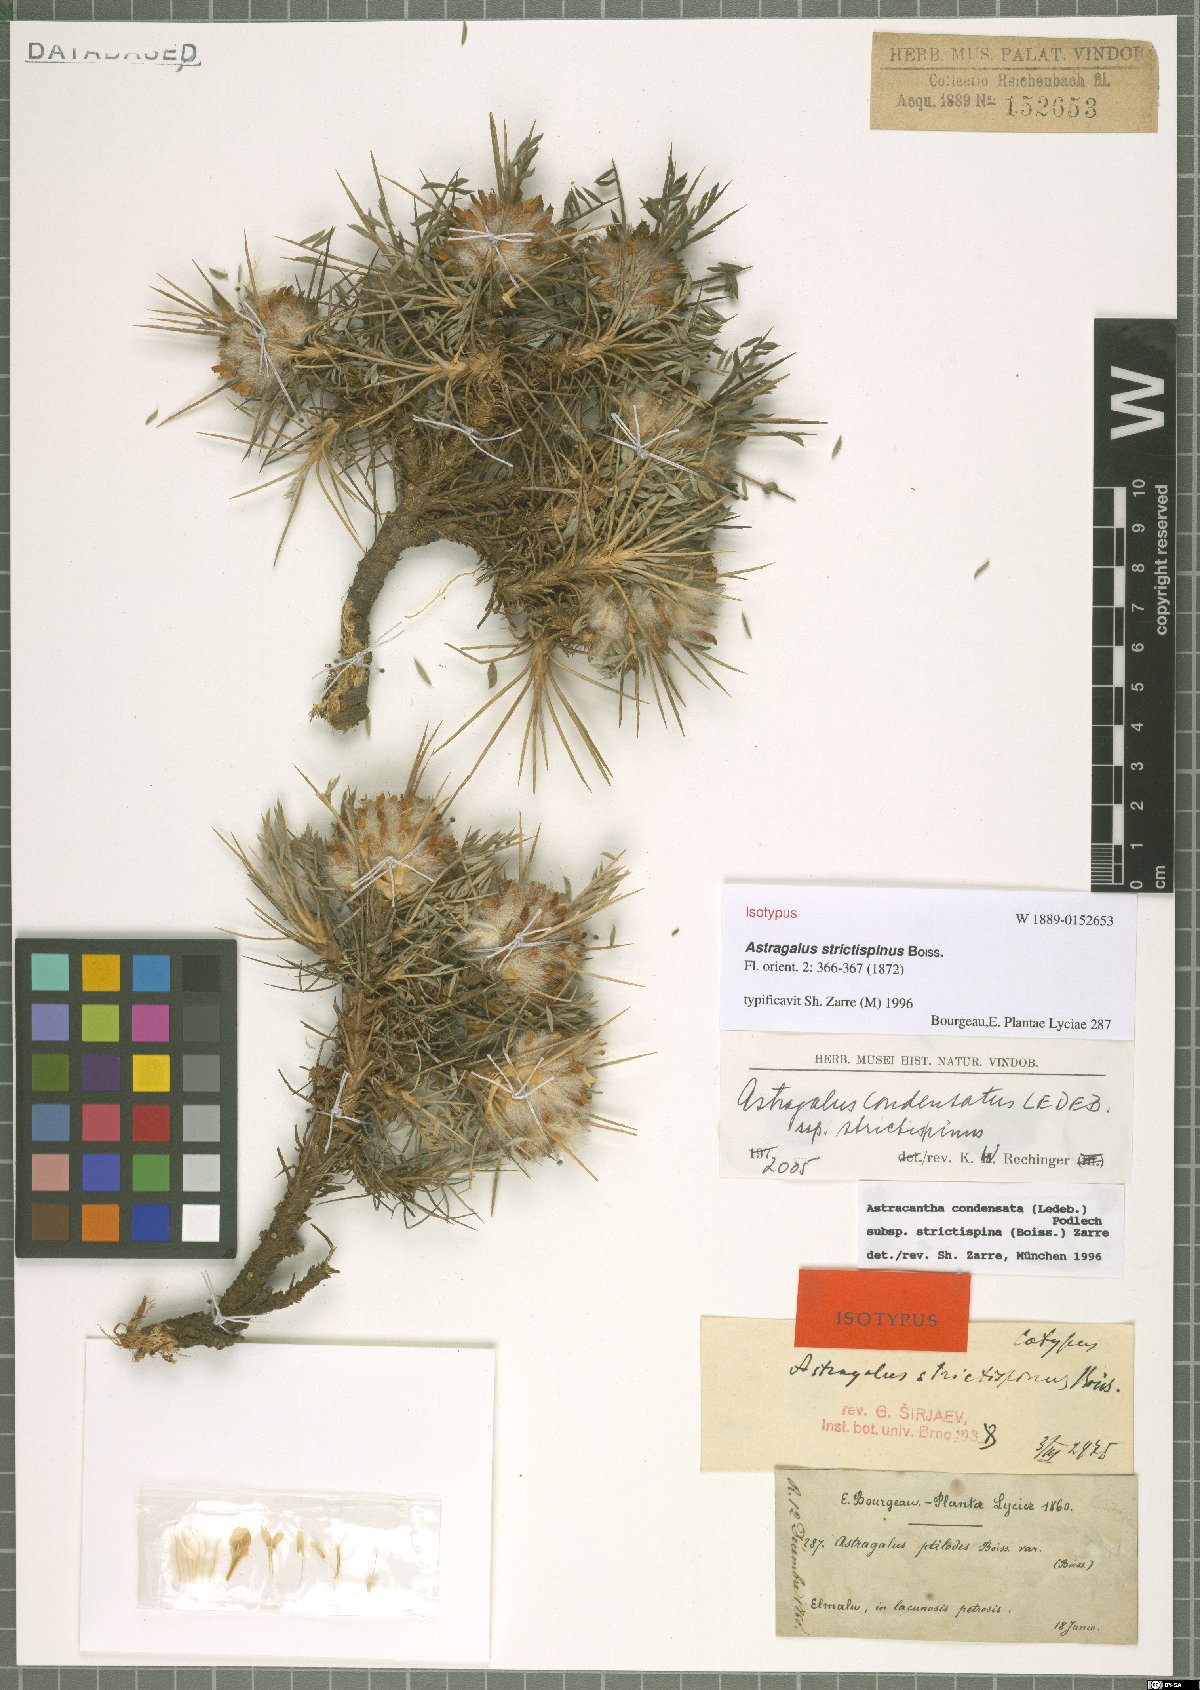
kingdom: Plantae
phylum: Tracheophyta
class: Magnoliopsida
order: Fabales
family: Fabaceae
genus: Astragalus
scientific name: Astragalus condensatus
